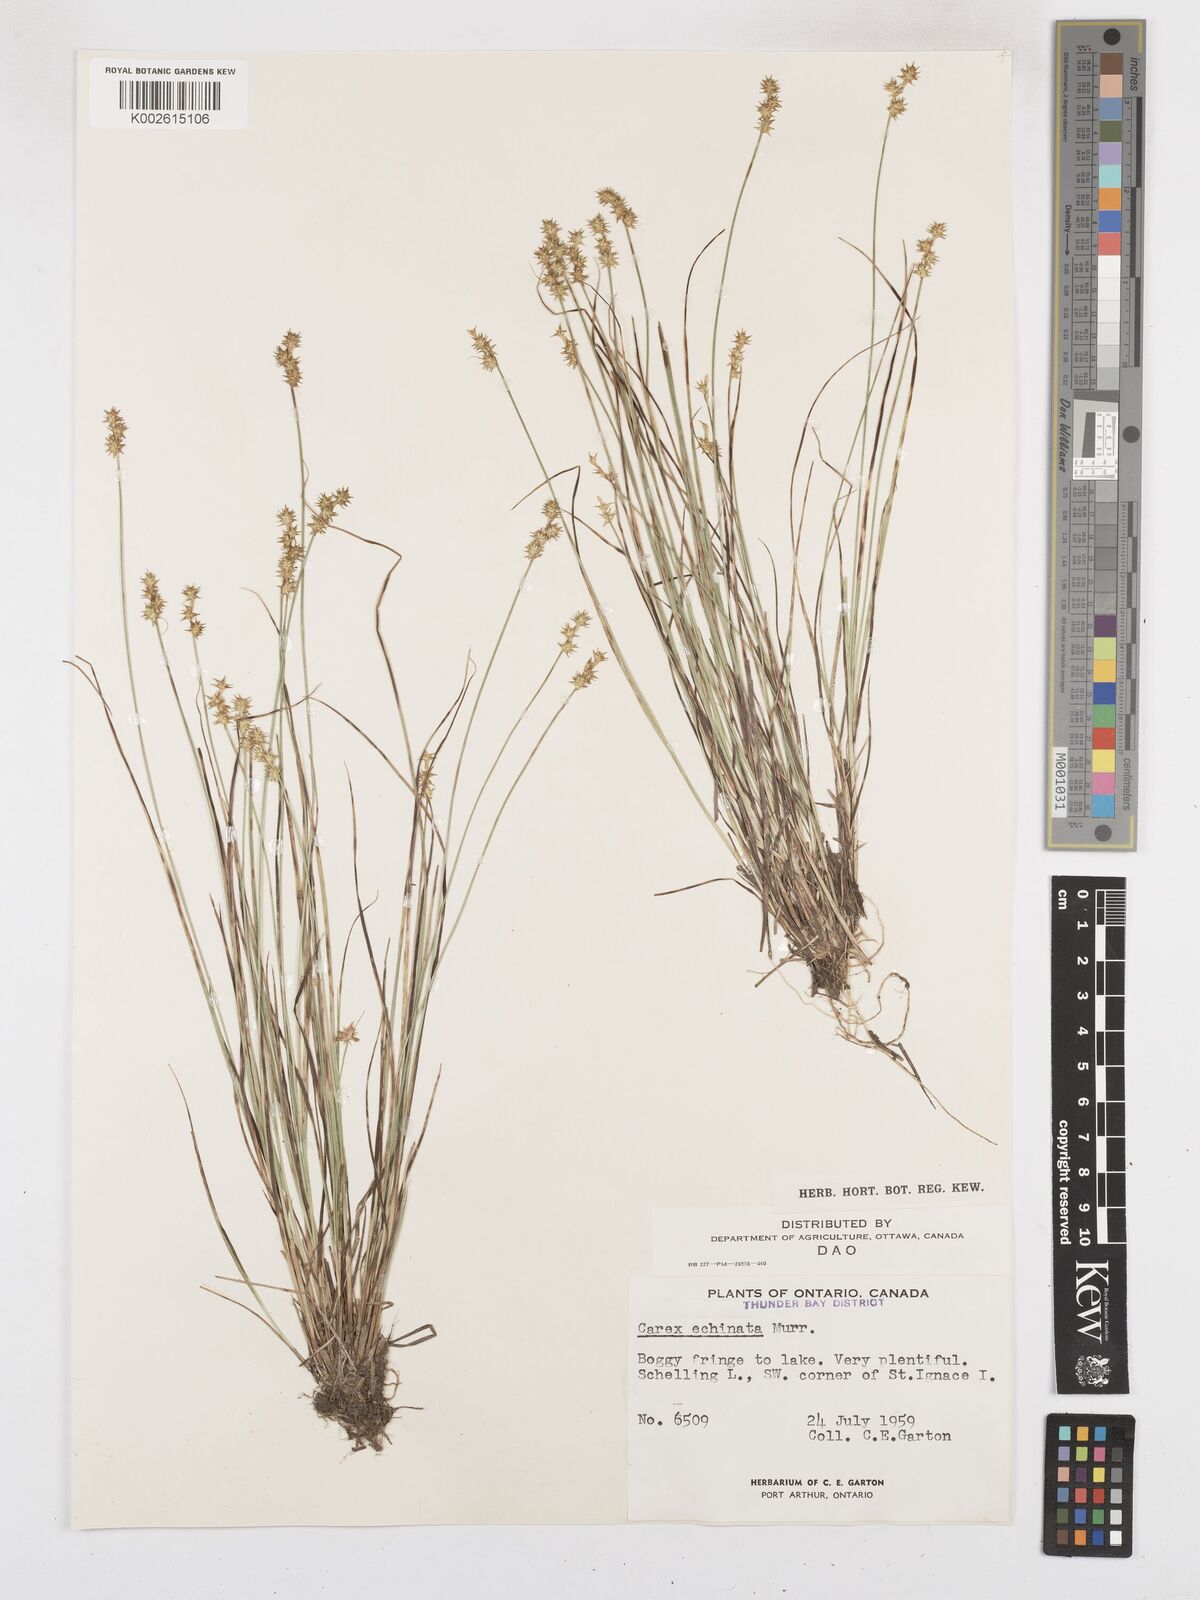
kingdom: Plantae
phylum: Tracheophyta
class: Liliopsida
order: Poales
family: Cyperaceae
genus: Carex
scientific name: Carex echinata
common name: Star sedge
